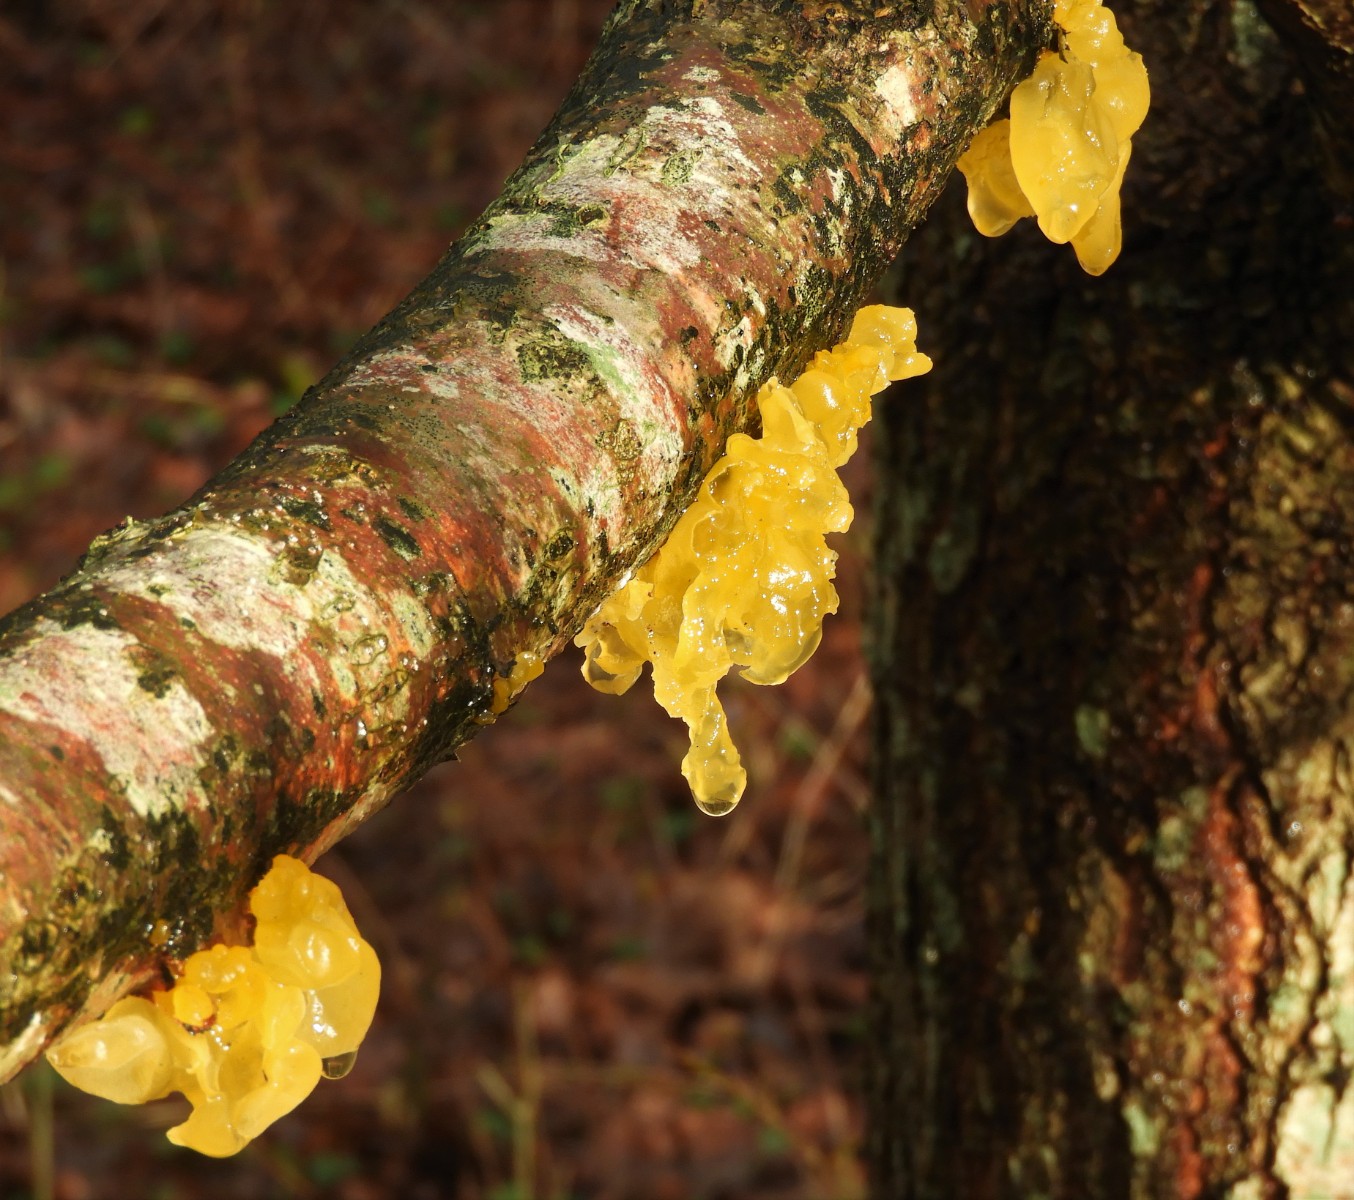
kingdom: Fungi
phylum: Basidiomycota
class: Tremellomycetes
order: Tremellales
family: Tremellaceae
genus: Tremella
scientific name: Tremella mesenterica
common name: gul bævresvamp
